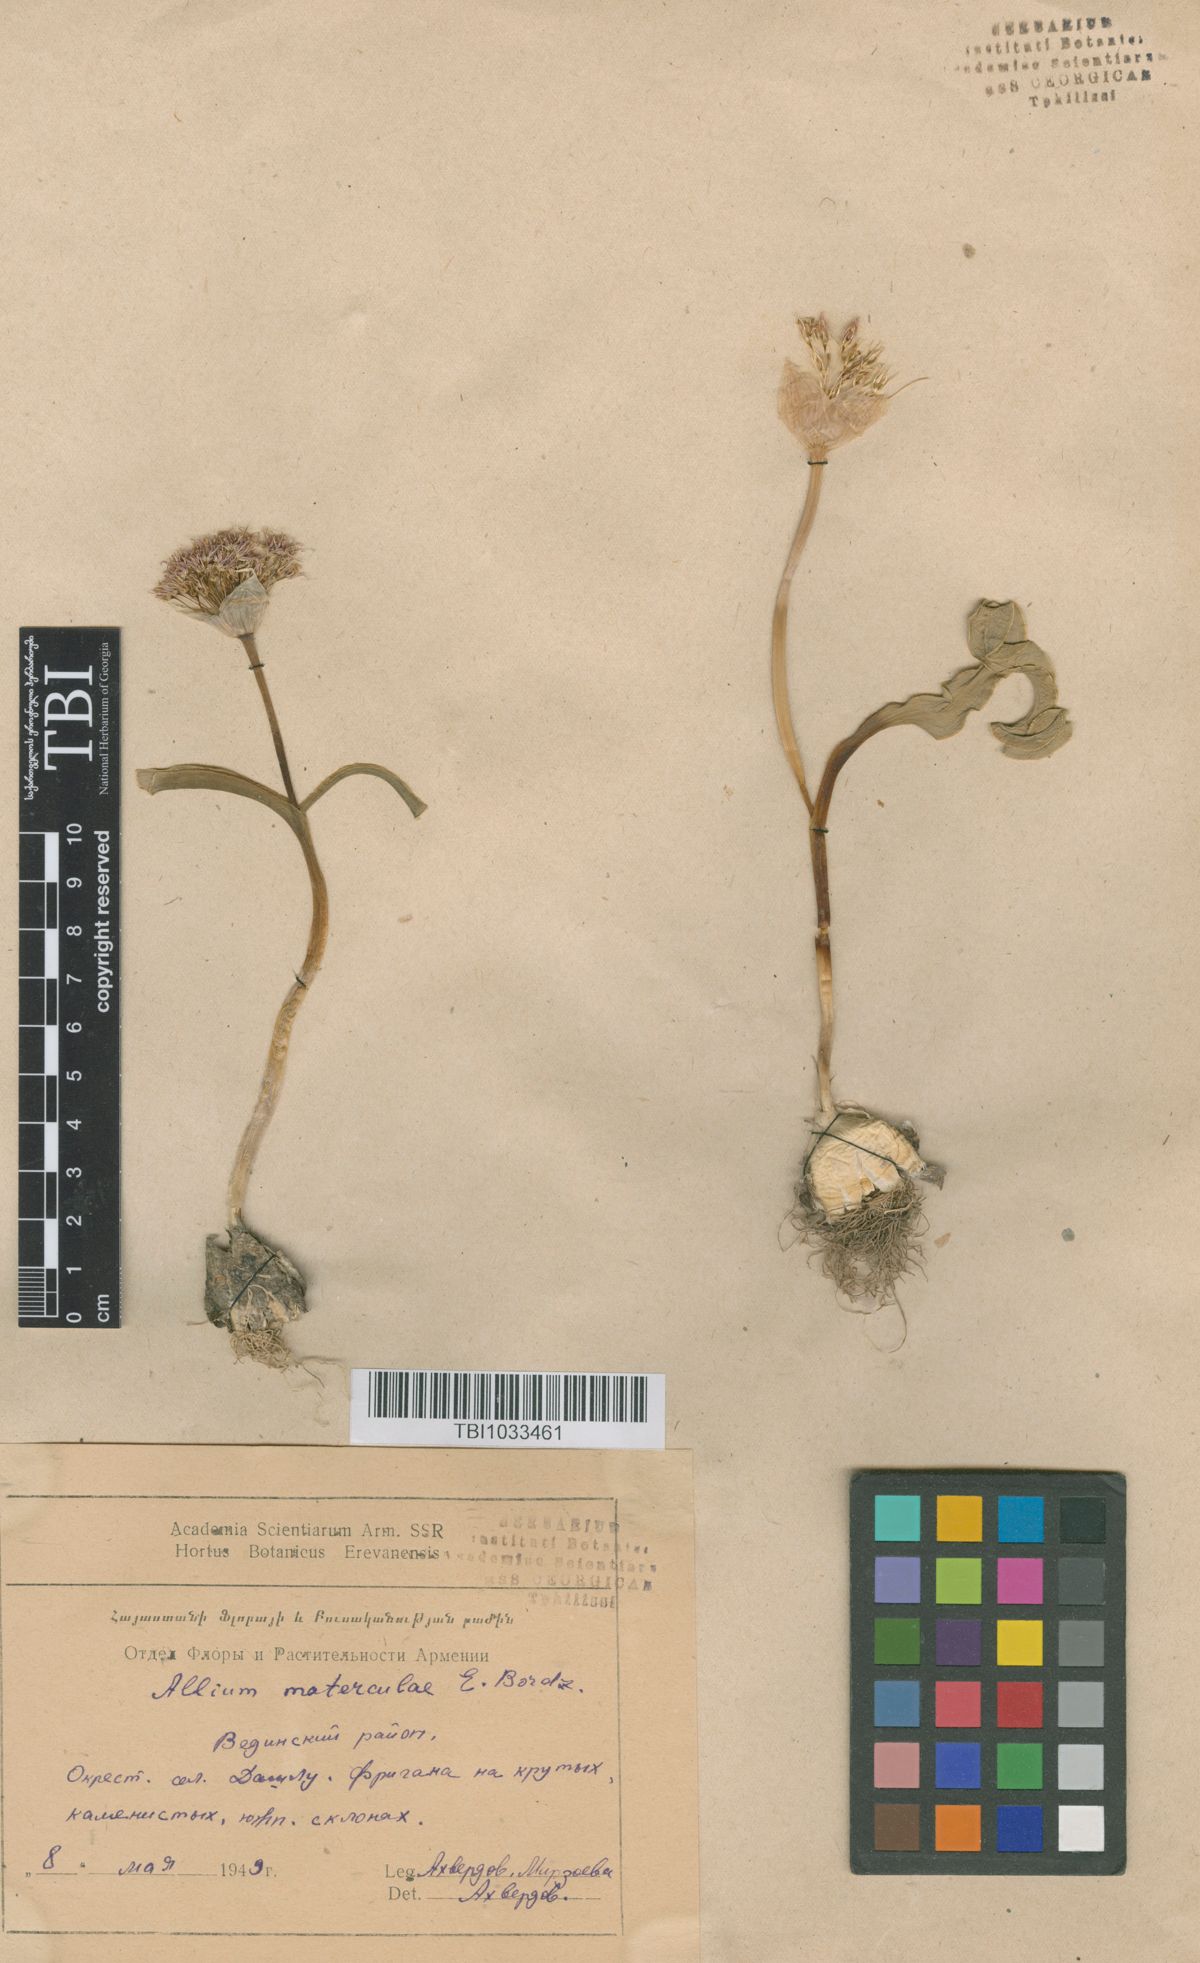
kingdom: Plantae
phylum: Tracheophyta
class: Liliopsida
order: Asparagales
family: Amaryllidaceae
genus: Allium
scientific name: Allium materculae
